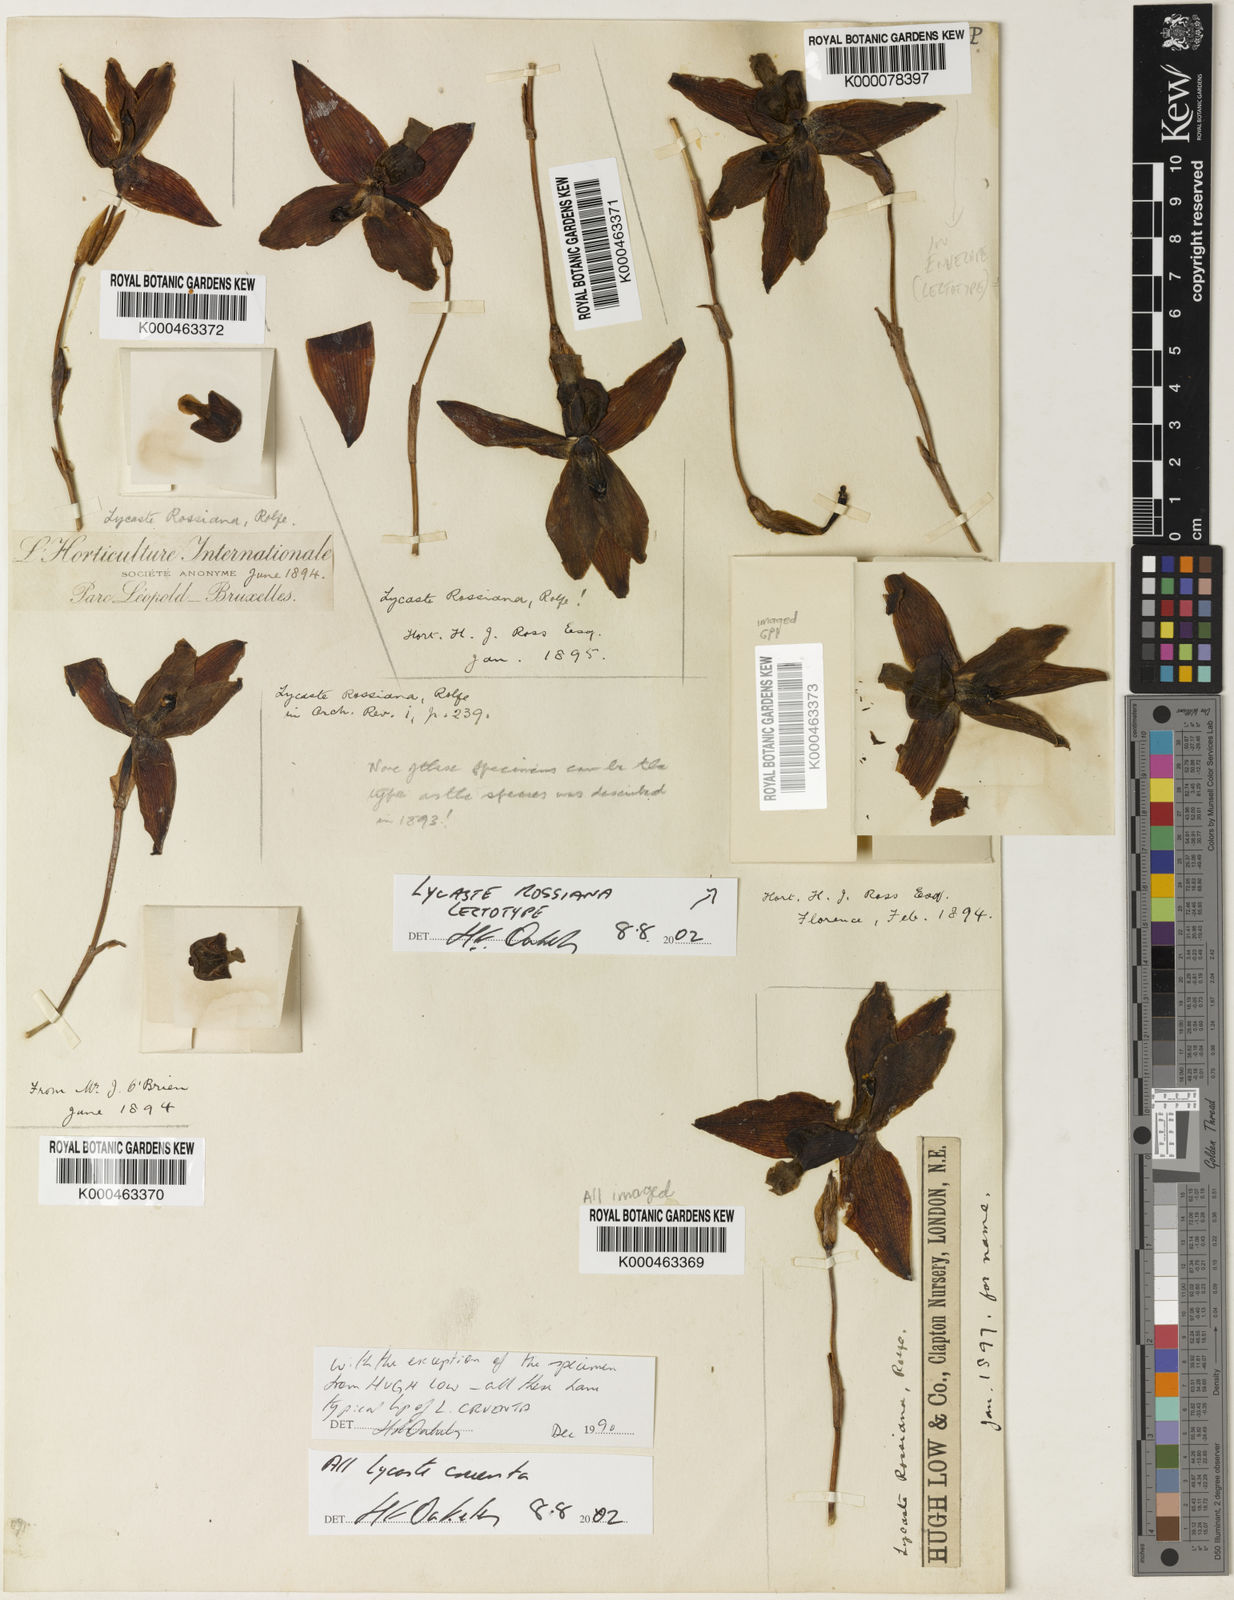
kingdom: Plantae
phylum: Tracheophyta
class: Liliopsida
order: Asparagales
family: Orchidaceae
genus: Lycaste
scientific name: Lycaste cruenta
